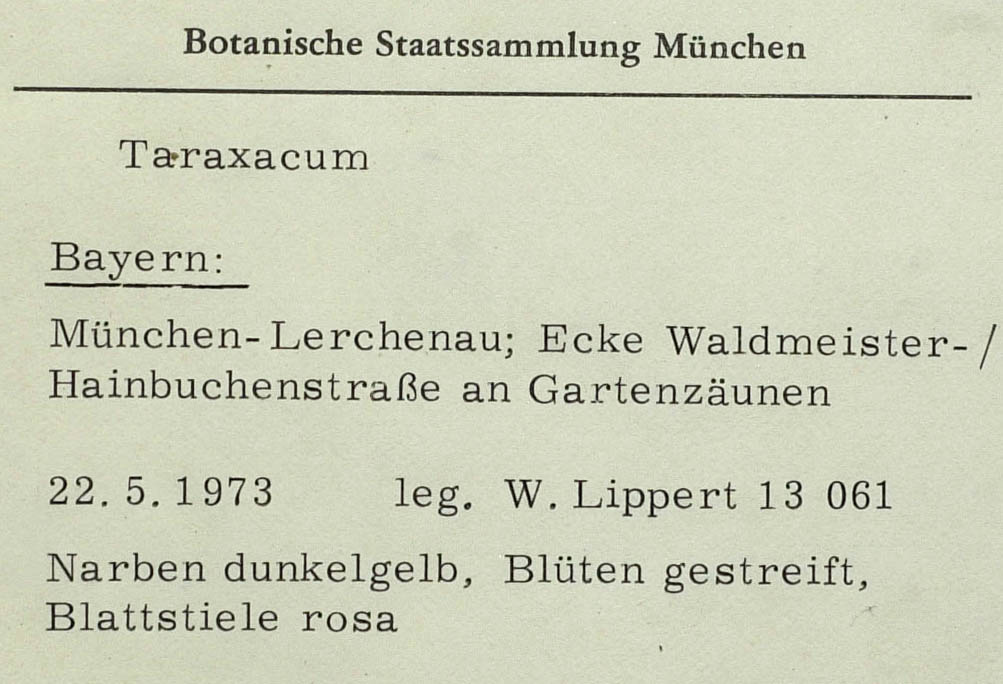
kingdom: Plantae
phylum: Tracheophyta
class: Magnoliopsida
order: Asterales
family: Asteraceae
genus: Taraxacum
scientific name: Taraxacum zelotes
